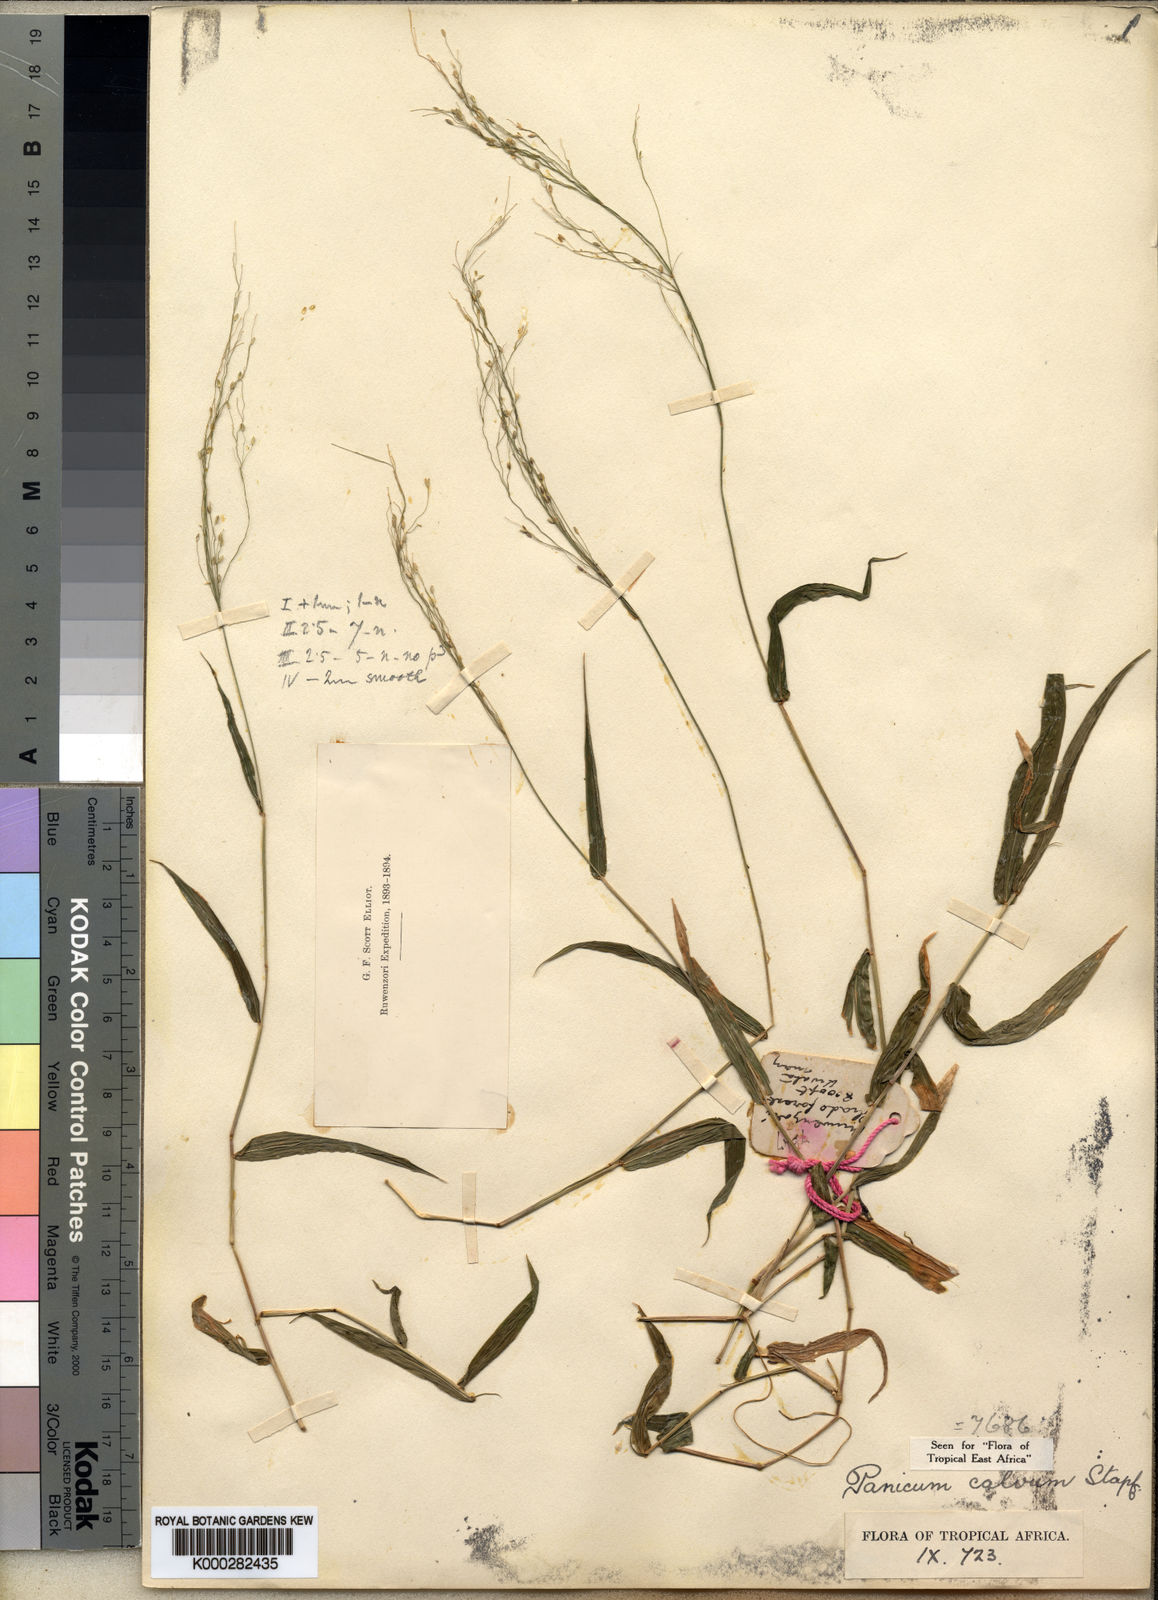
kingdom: Plantae
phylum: Tracheophyta
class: Liliopsida
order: Poales
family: Poaceae
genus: Panicum
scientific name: Panicum calvum
